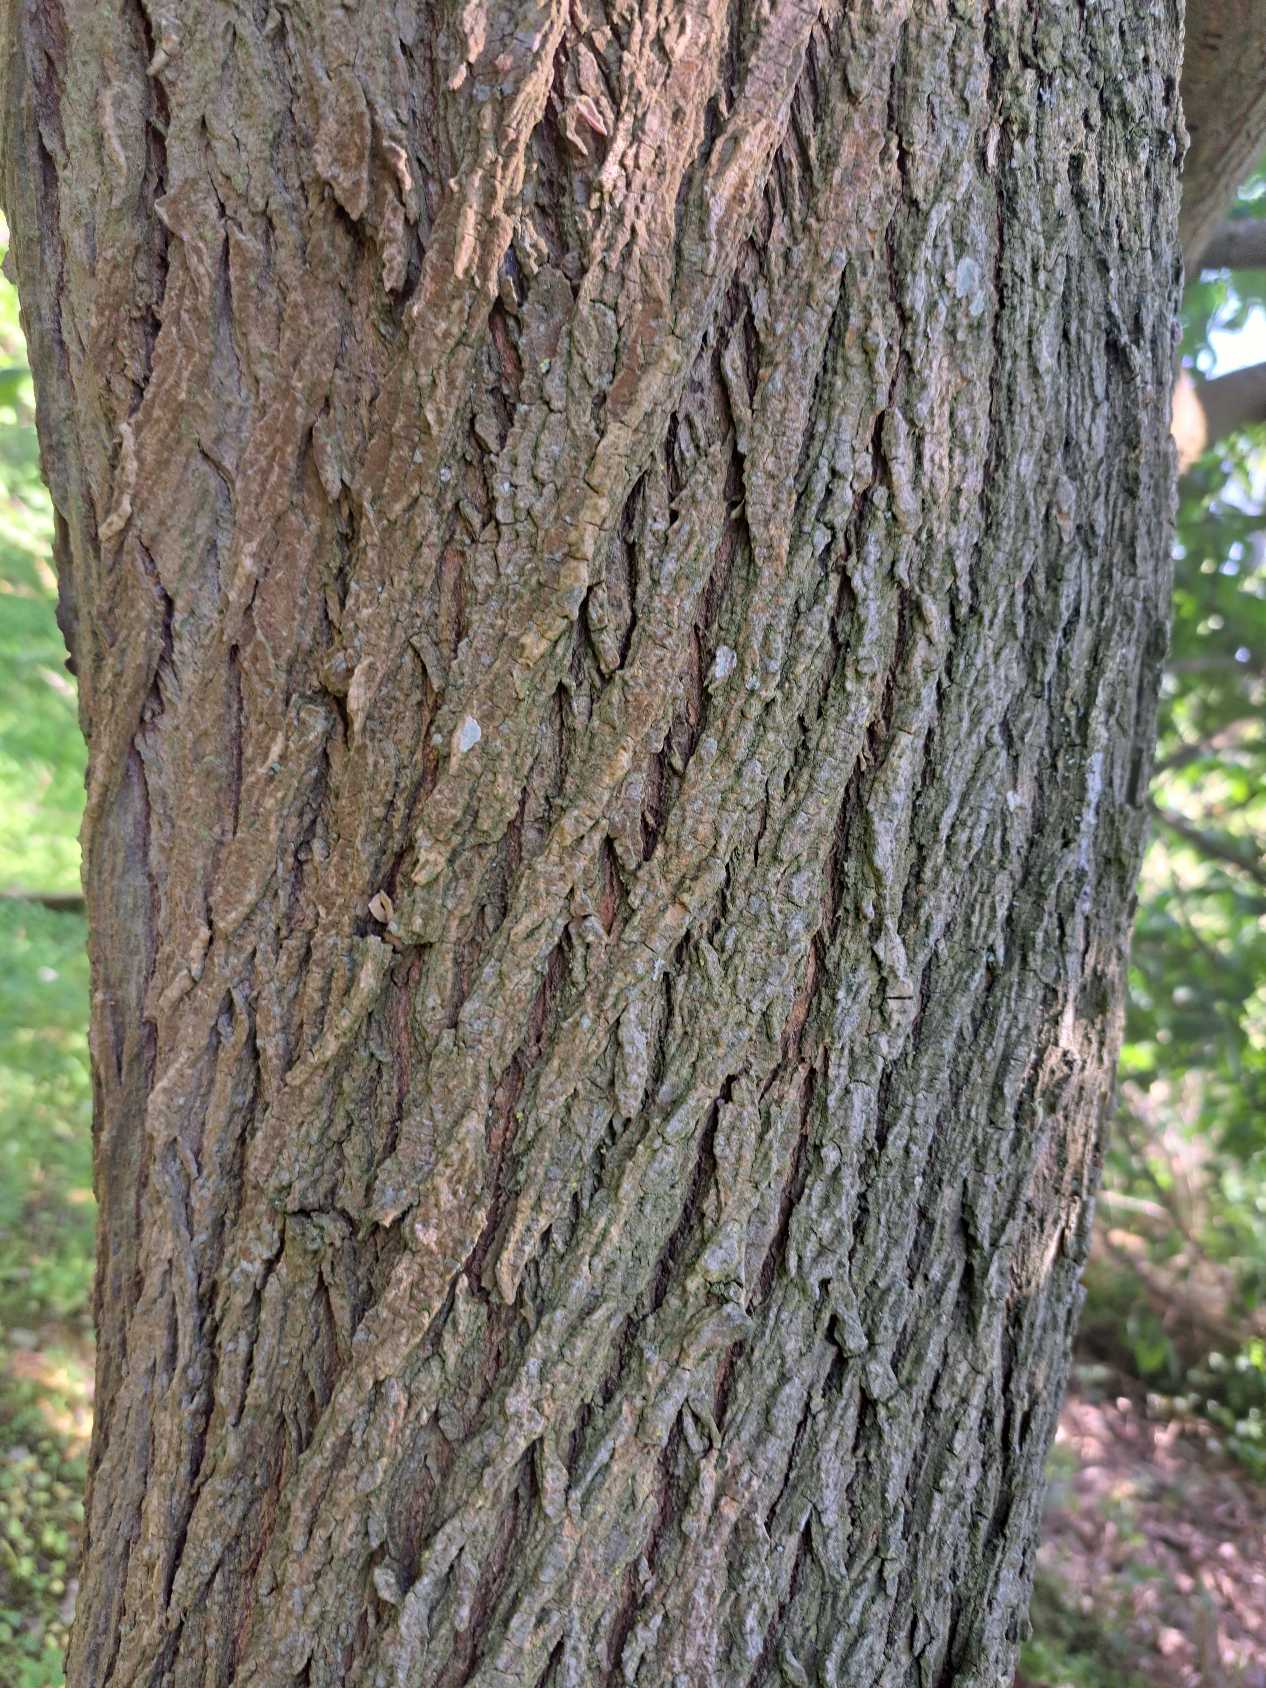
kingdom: Plantae
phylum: Tracheophyta
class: Magnoliopsida
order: Rosales
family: Ulmaceae
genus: Ulmus
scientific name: Ulmus glabra
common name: Skov-elm/storbladet elm
